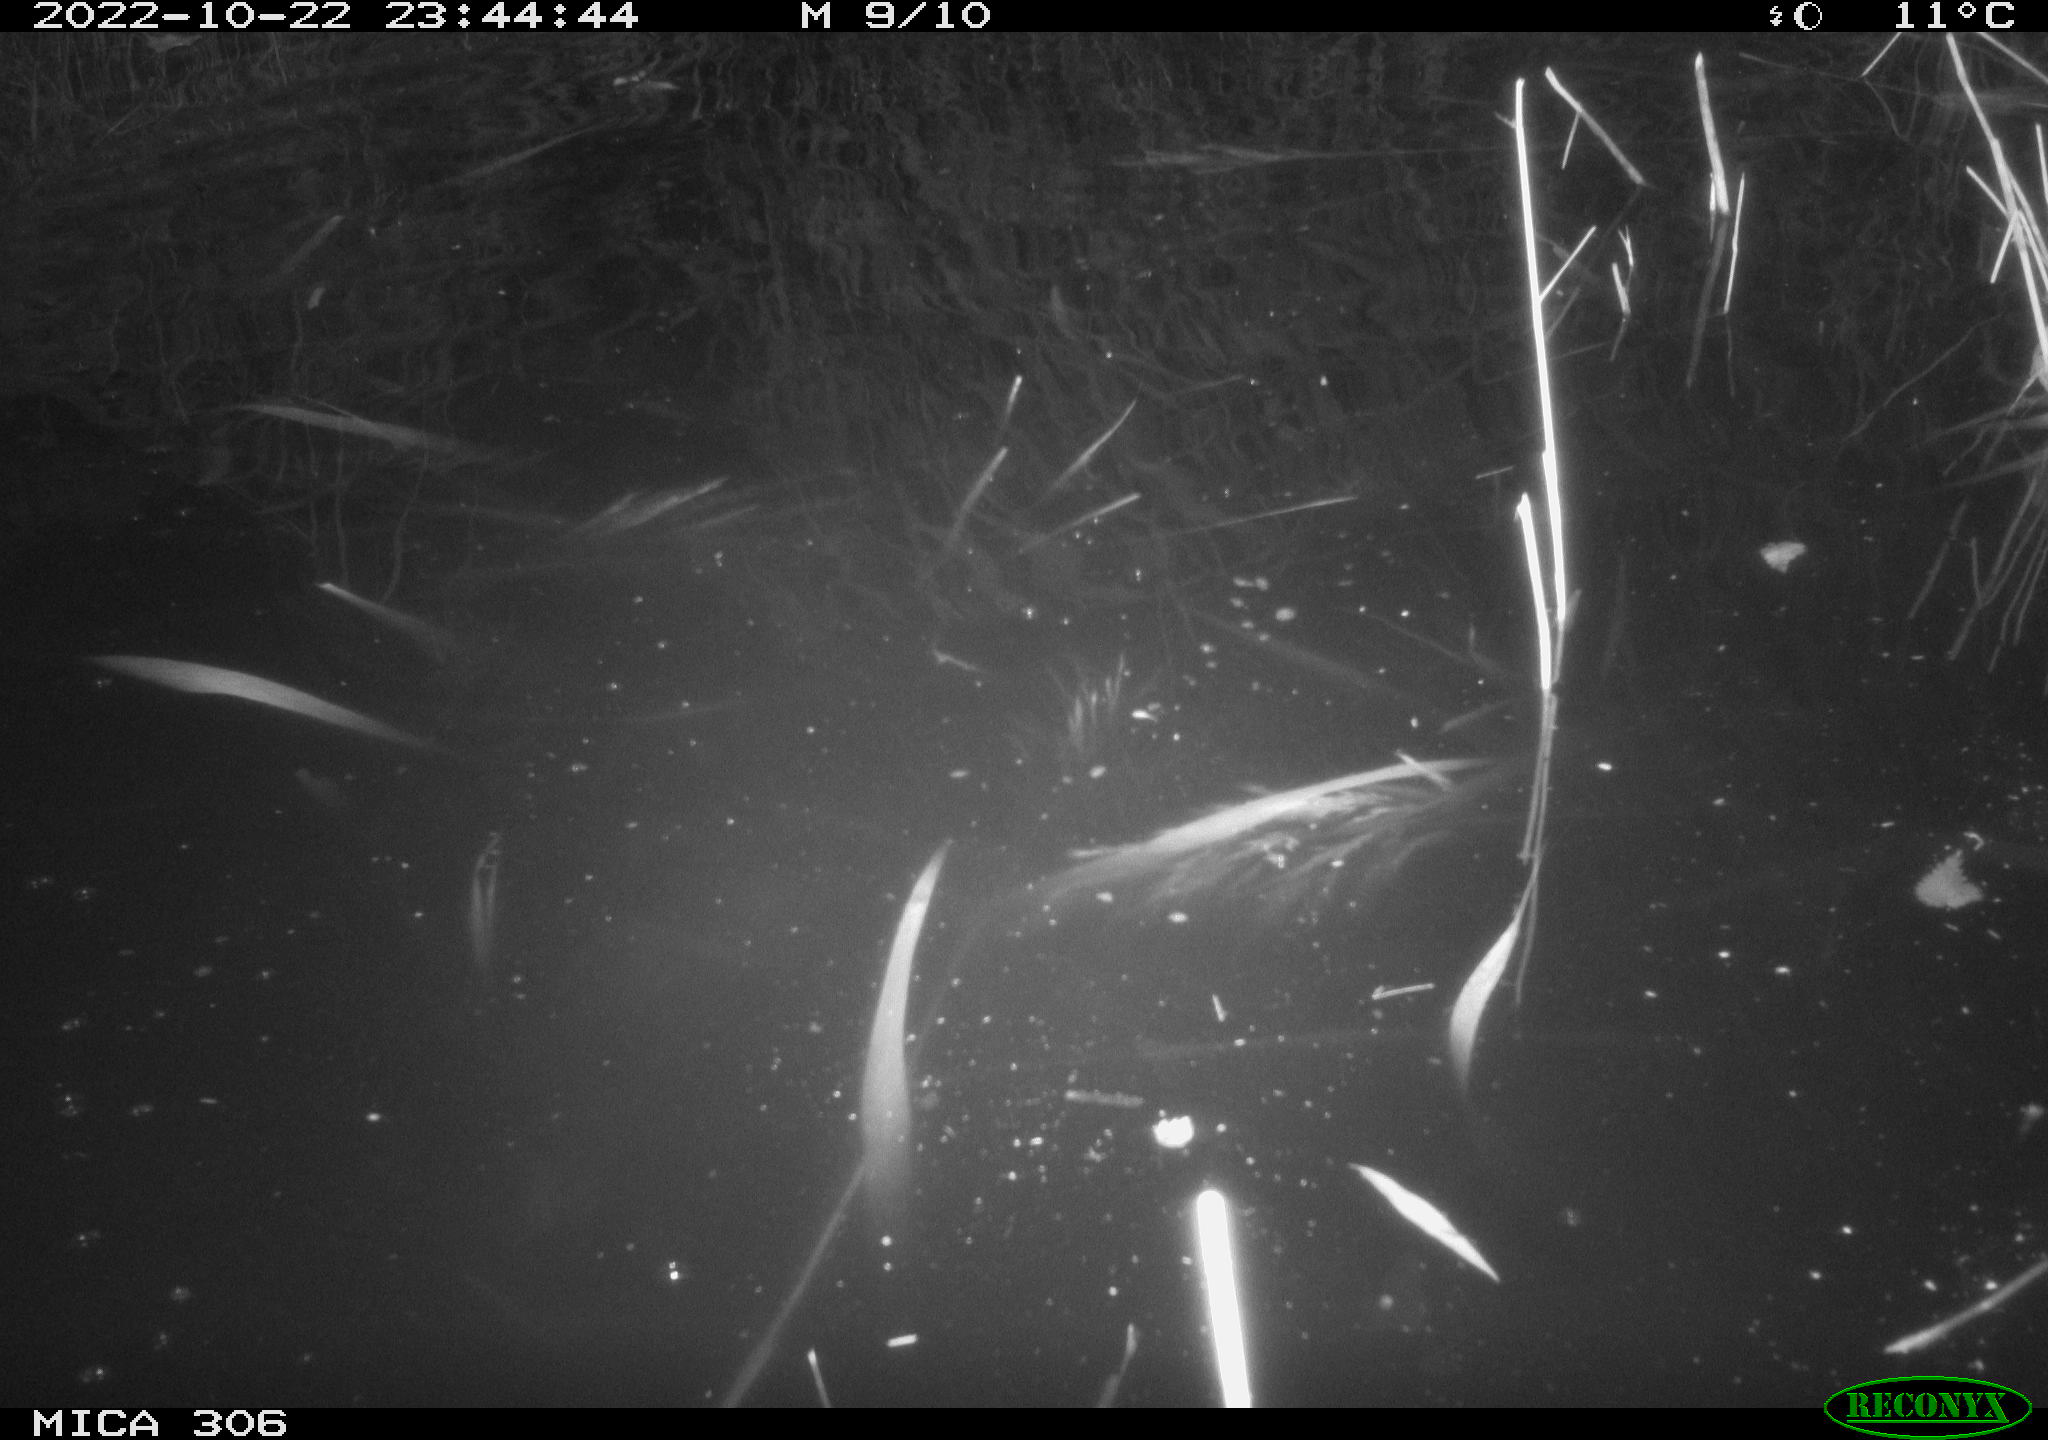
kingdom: Animalia
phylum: Chordata
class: Mammalia
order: Rodentia
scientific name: Rodentia
